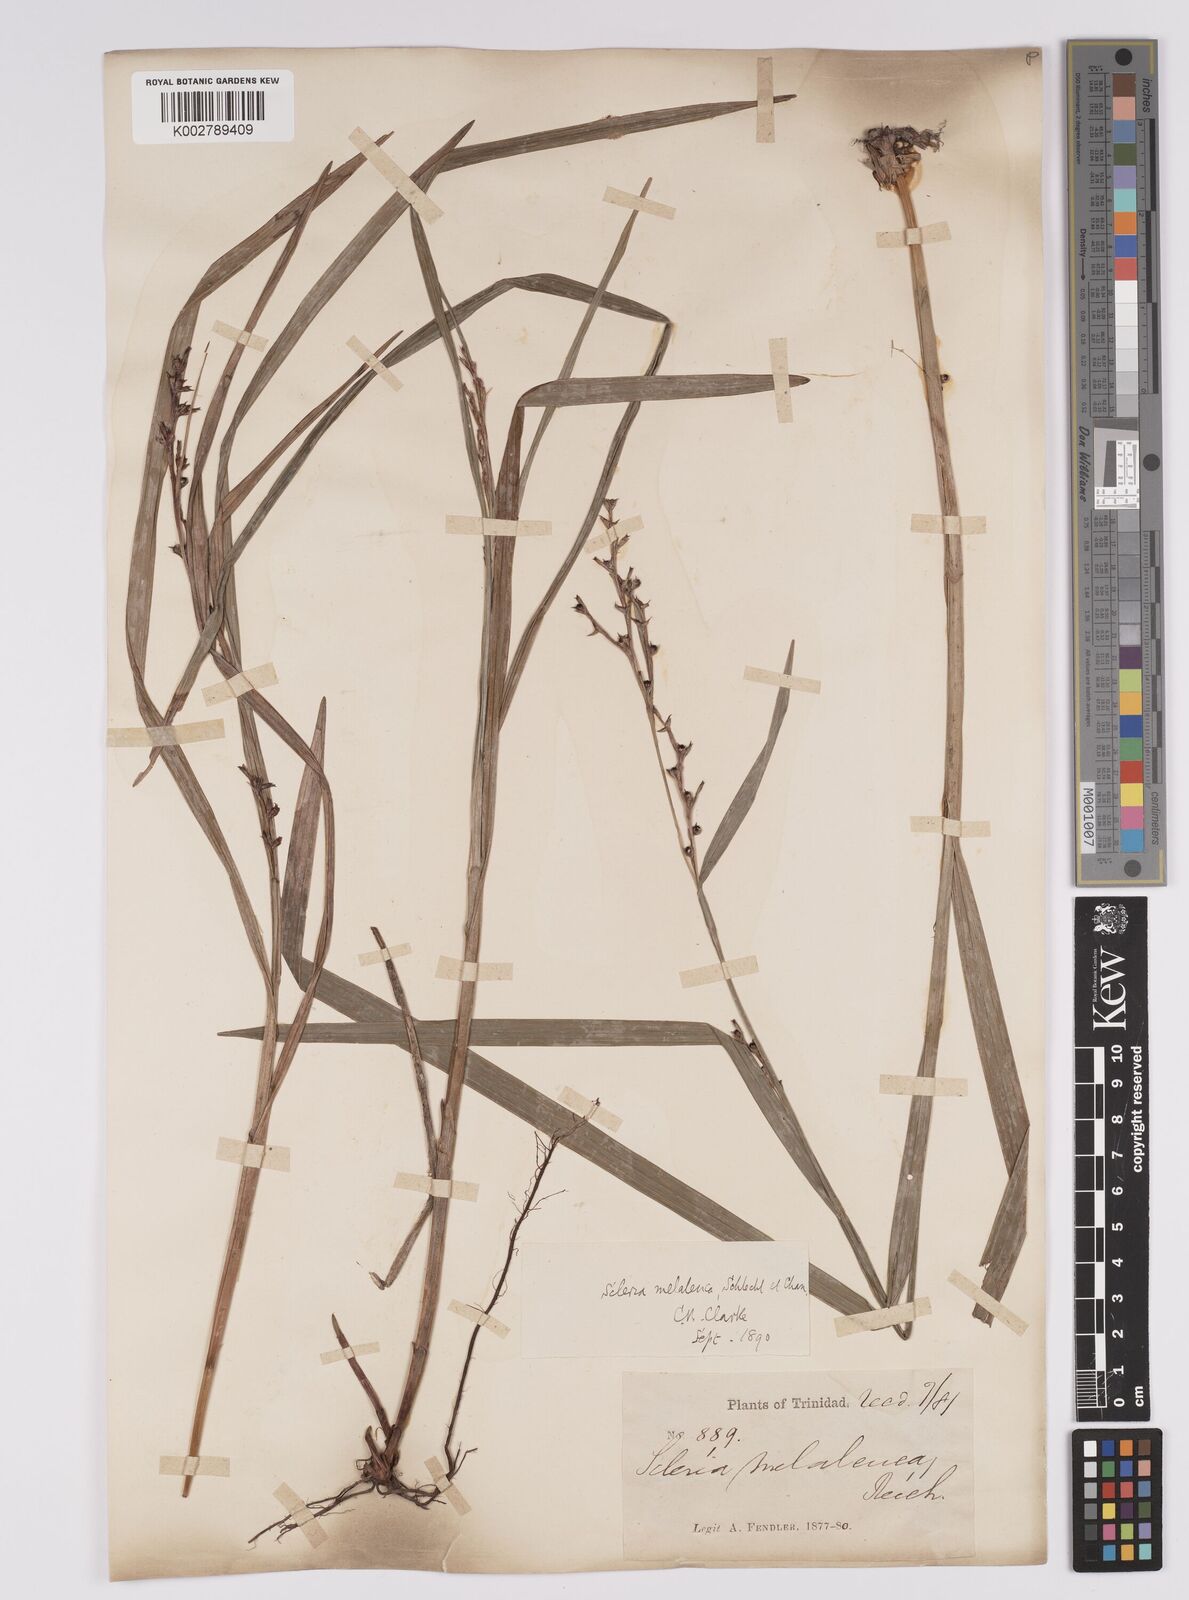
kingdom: Plantae
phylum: Tracheophyta
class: Liliopsida
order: Poales
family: Cyperaceae
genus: Scleria
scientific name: Scleria gaertneri
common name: Cortadera blanca
